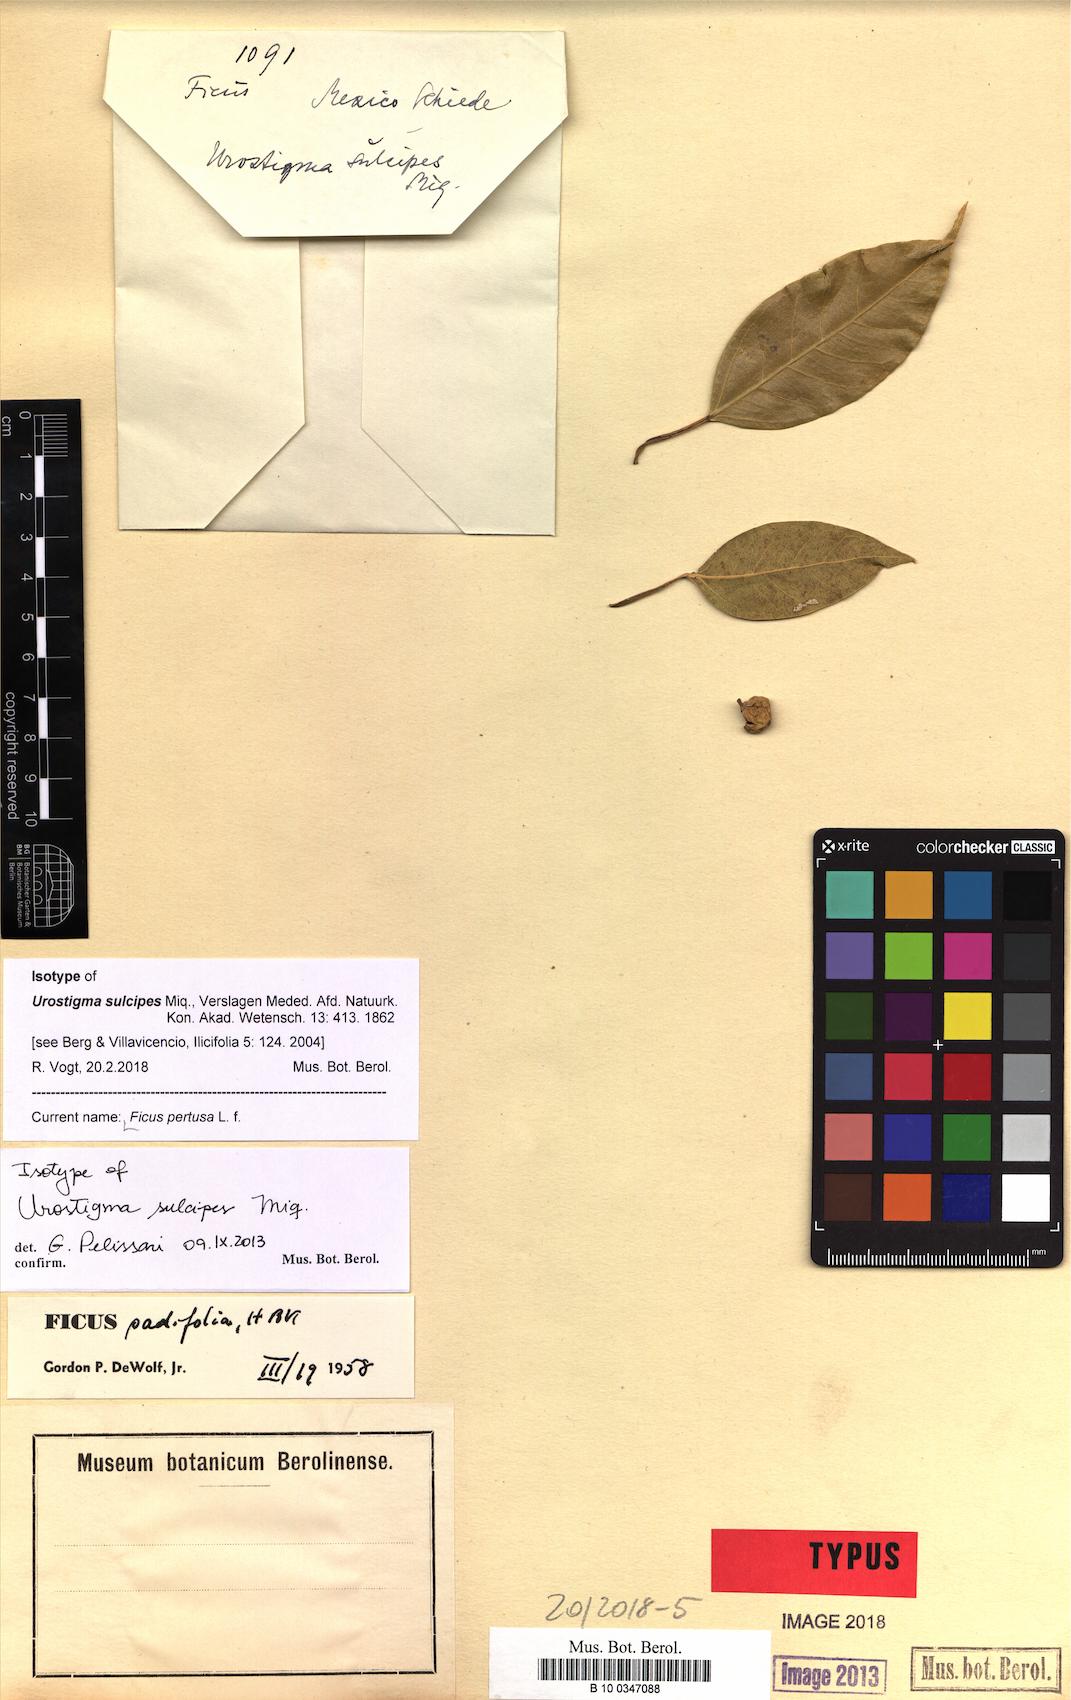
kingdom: Plantae
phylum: Tracheophyta
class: Magnoliopsida
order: Rosales
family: Moraceae
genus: Ficus
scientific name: Ficus pertusa
